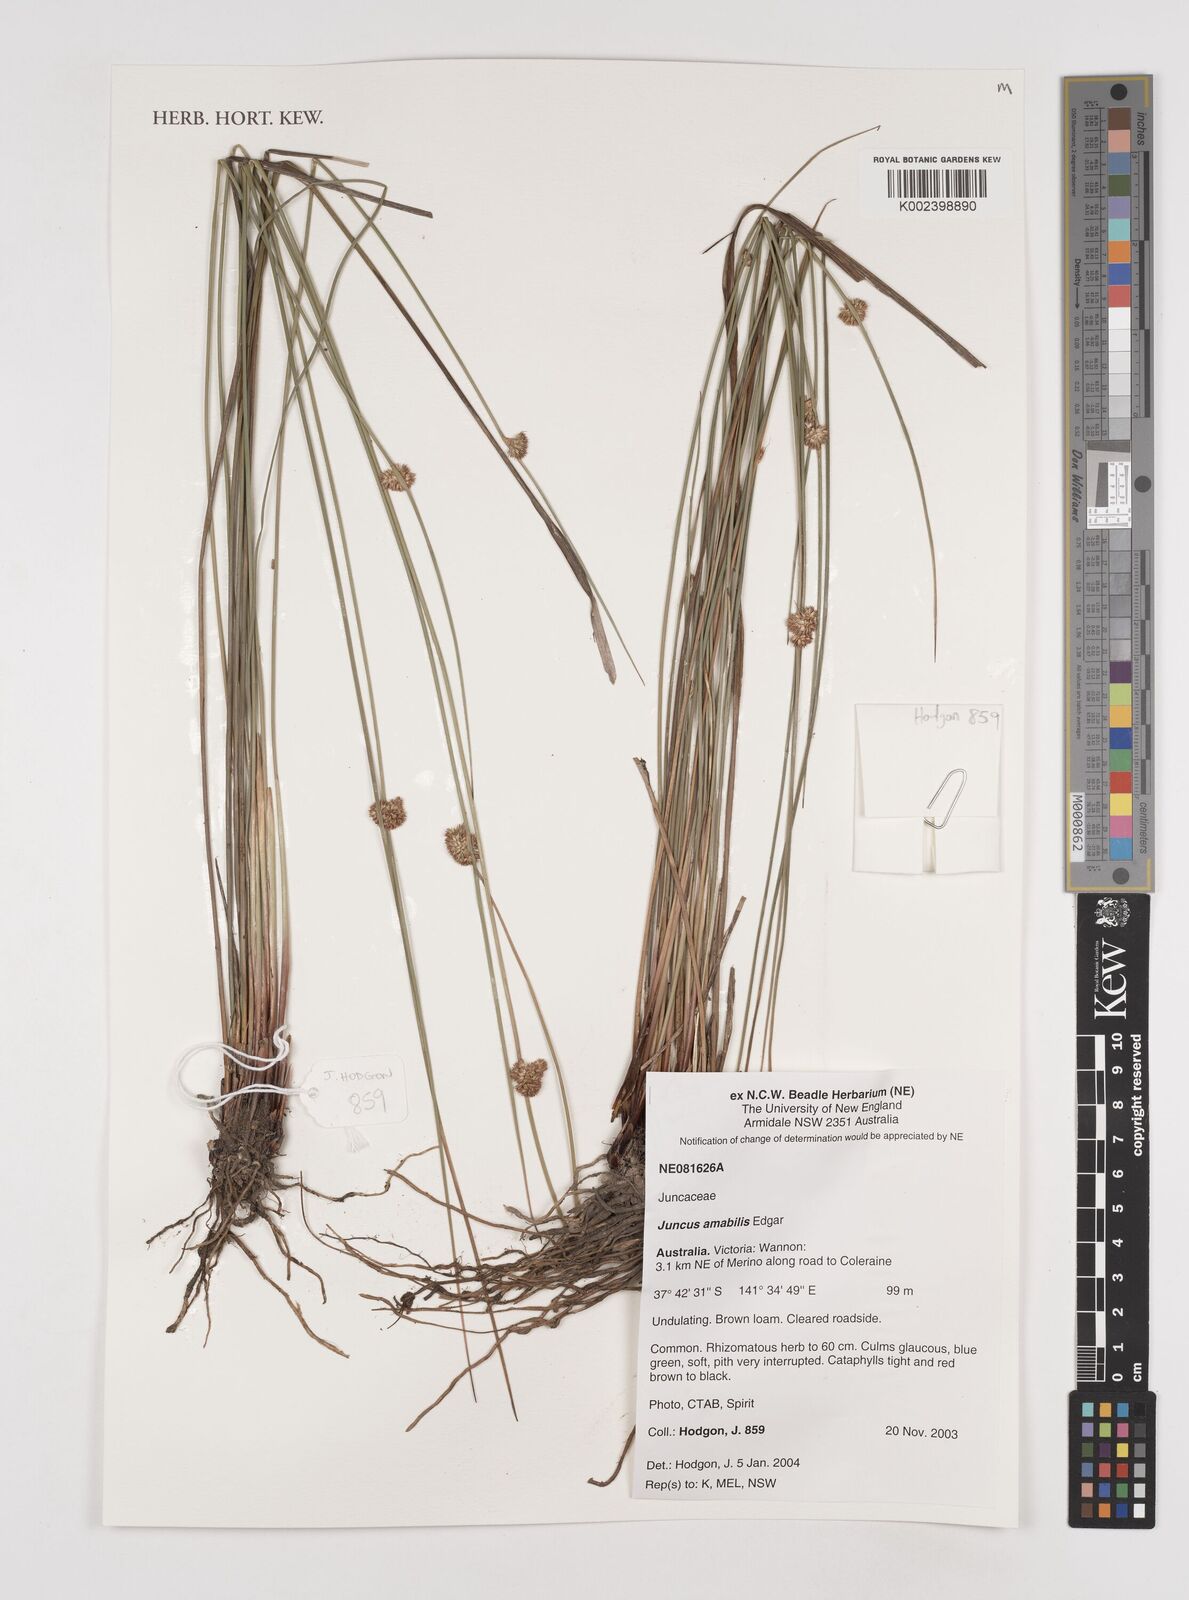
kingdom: Plantae
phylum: Tracheophyta
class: Liliopsida
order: Poales
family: Juncaceae
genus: Juncus
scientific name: Juncus amabilis
